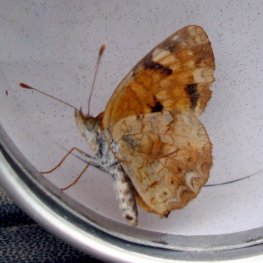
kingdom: Animalia
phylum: Arthropoda
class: Insecta
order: Lepidoptera
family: Nymphalidae
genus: Phyciodes
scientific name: Phyciodes tharos
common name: Northern Crescent
